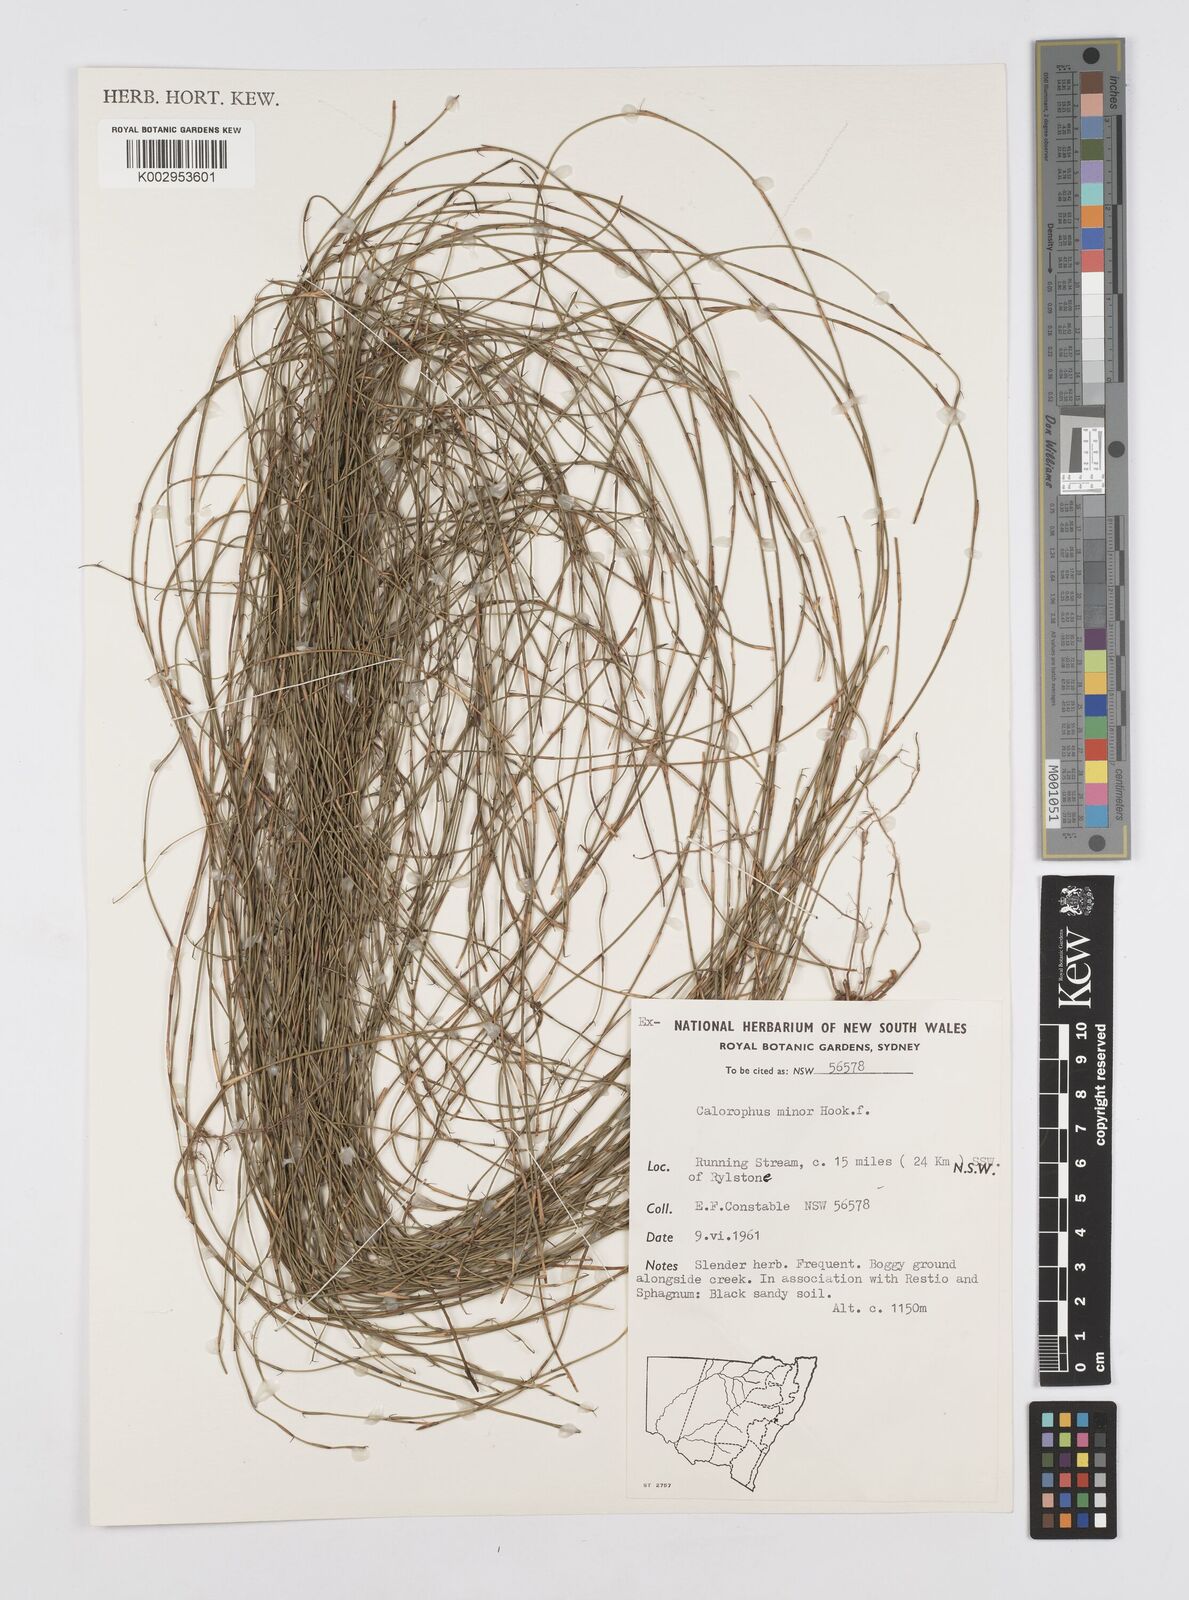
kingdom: Plantae
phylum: Tracheophyta
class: Liliopsida
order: Poales
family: Restionaceae
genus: Empodisma
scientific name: Empodisma minus
